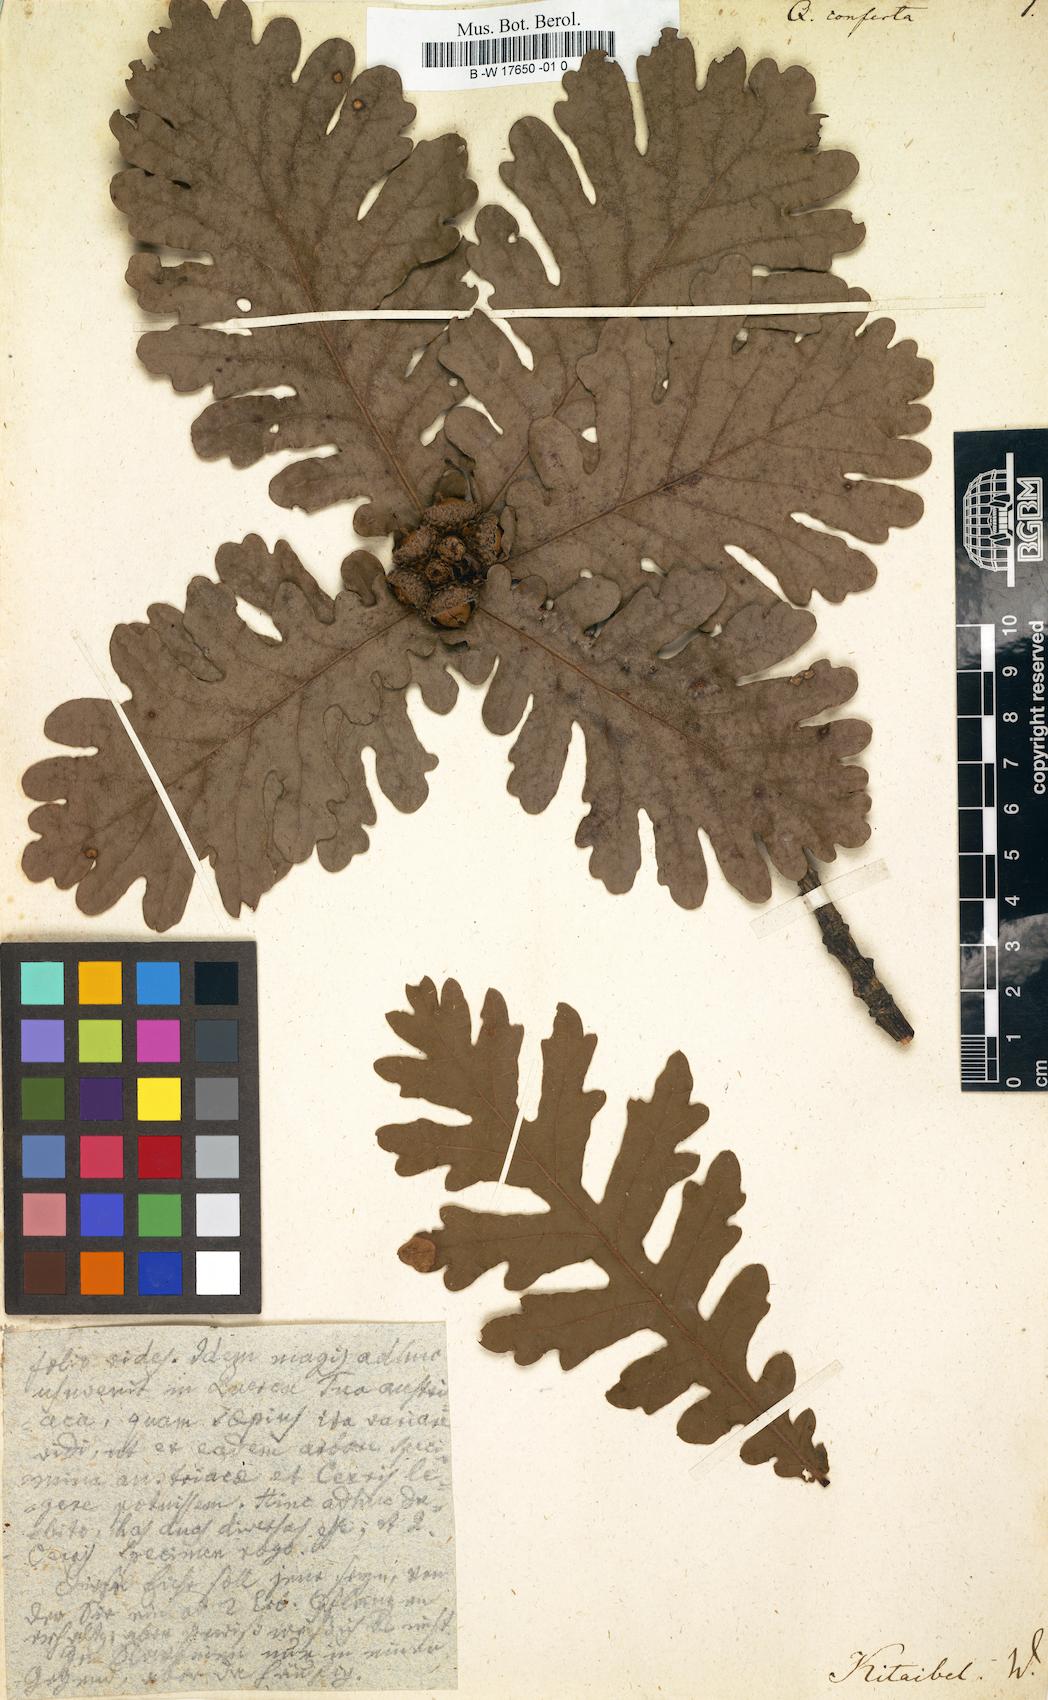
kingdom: Plantae
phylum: Tracheophyta
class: Magnoliopsida
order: Fagales
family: Fagaceae
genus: Quercus
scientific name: Quercus conferta
